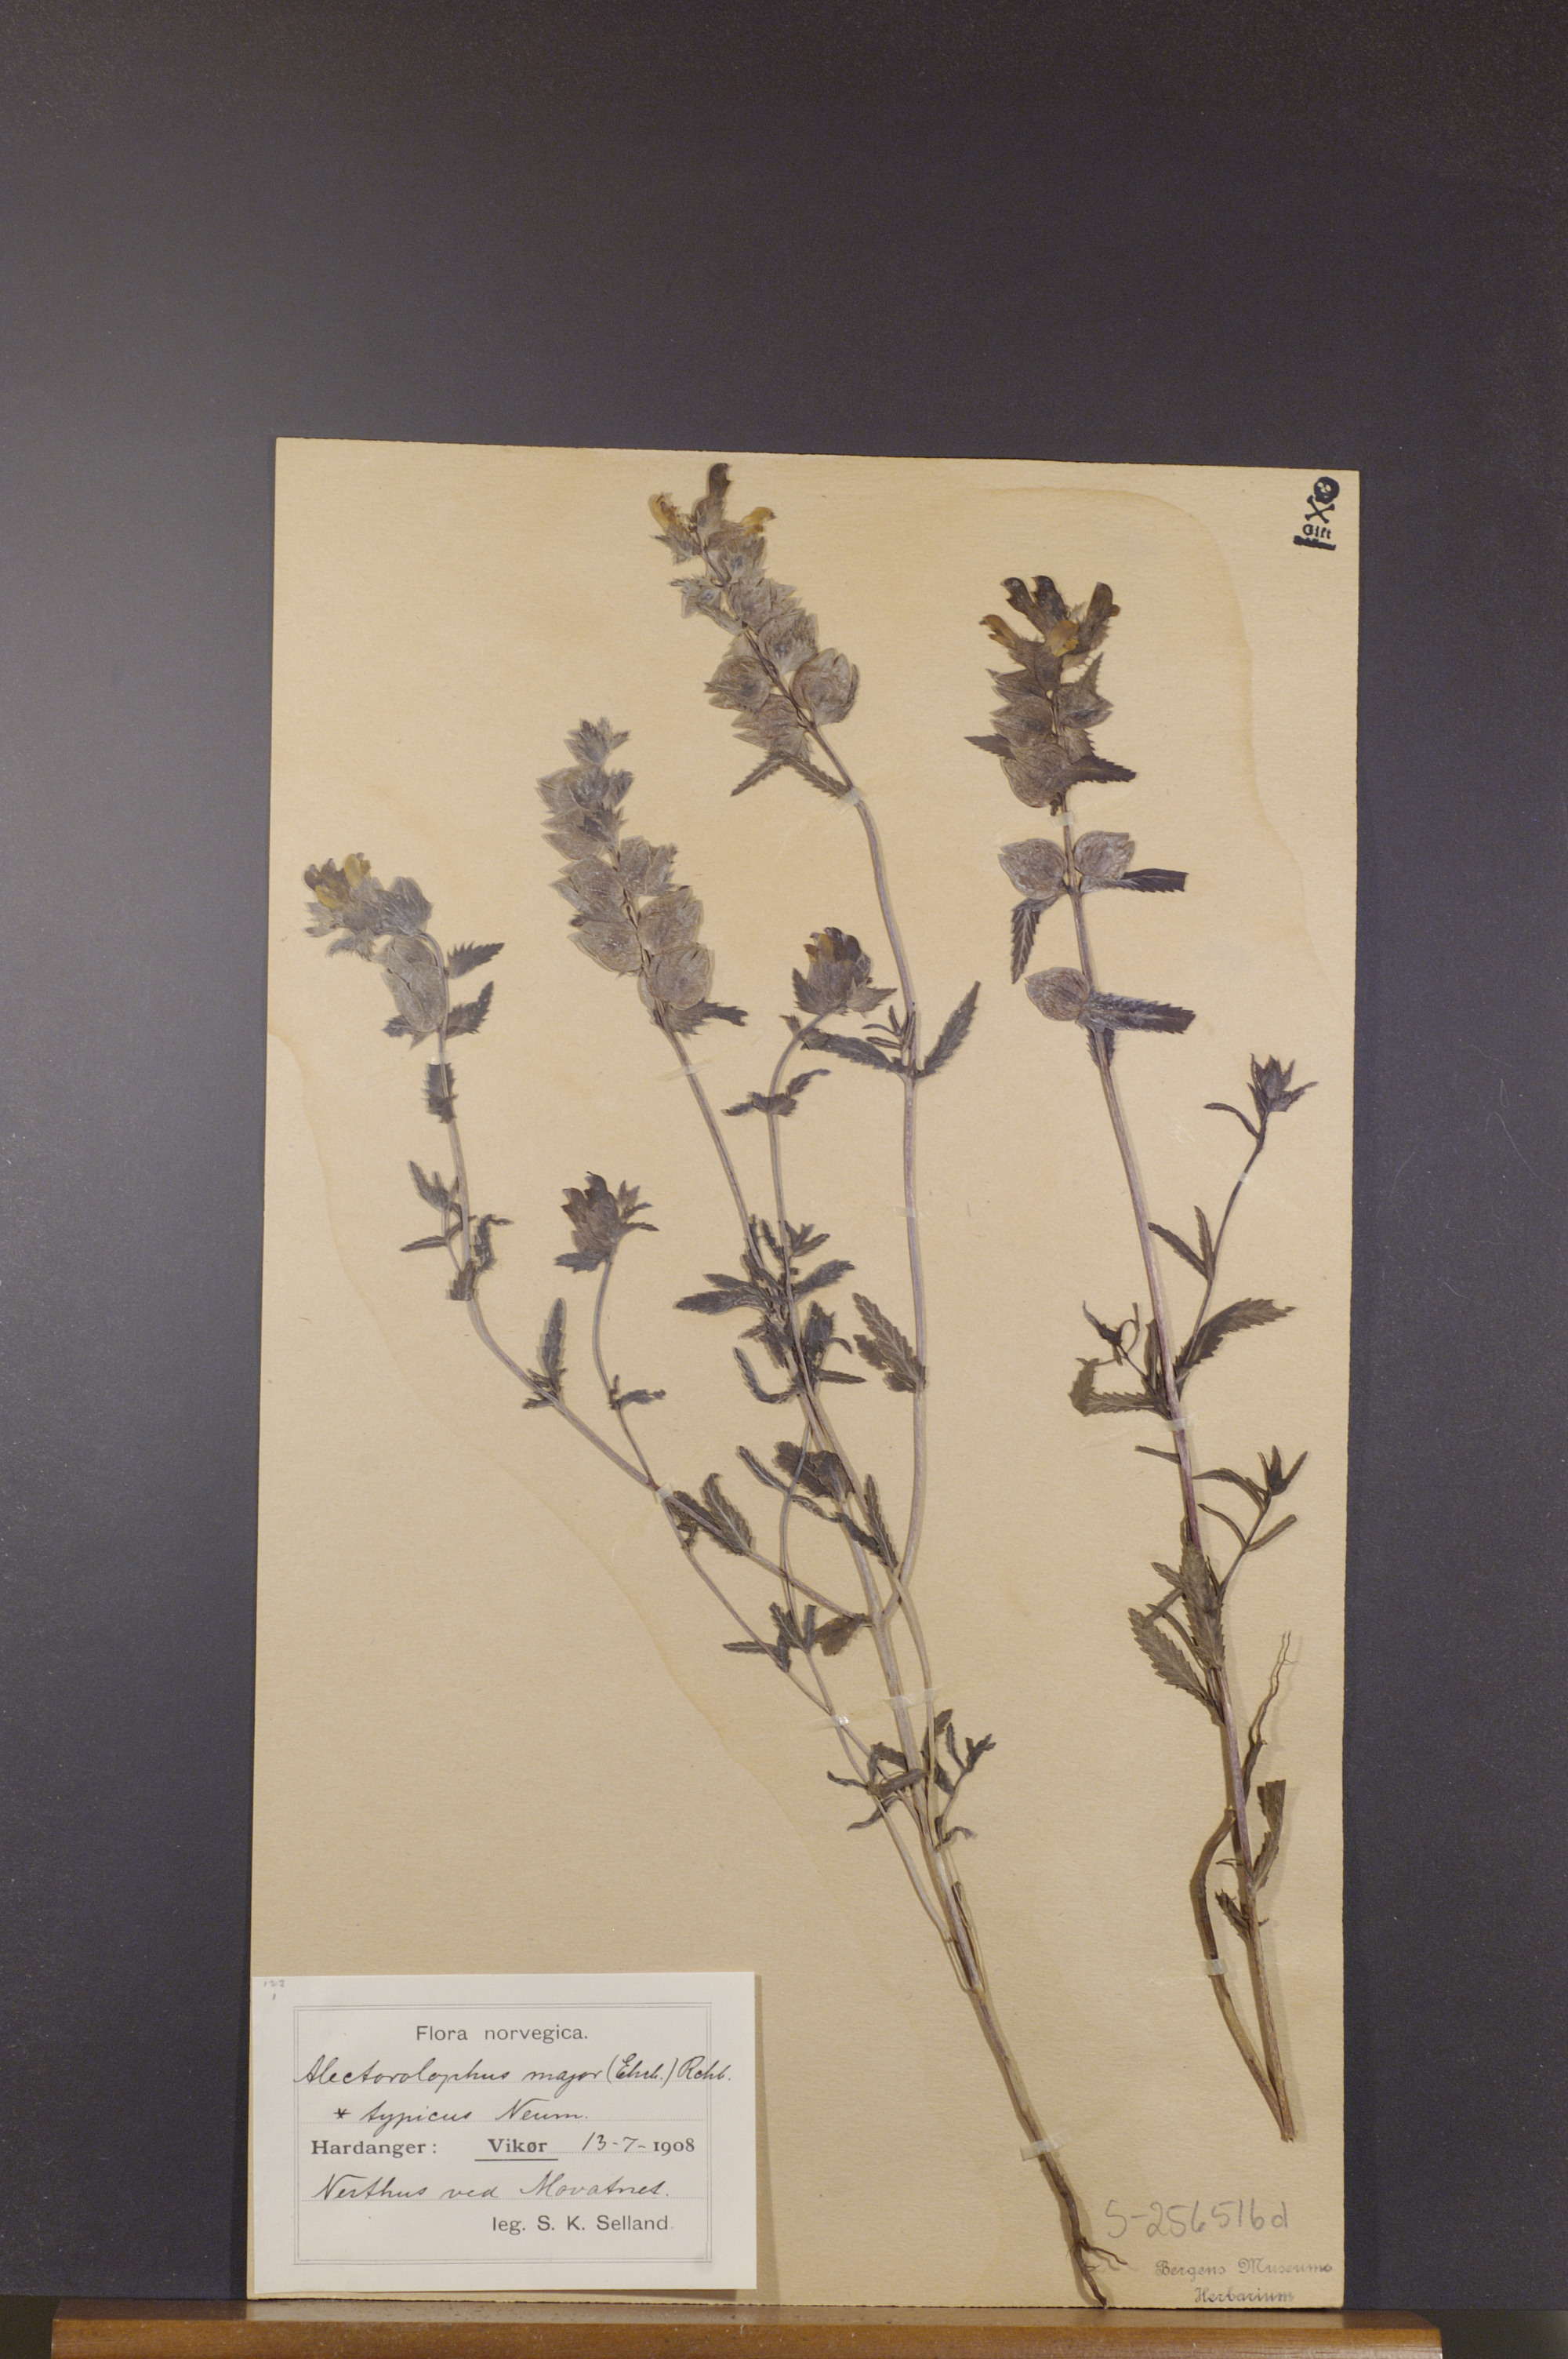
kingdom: Plantae
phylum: Tracheophyta
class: Magnoliopsida
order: Lamiales
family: Orobanchaceae
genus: Rhinanthus
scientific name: Rhinanthus serotinus
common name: Late-flowering yellow rattle
